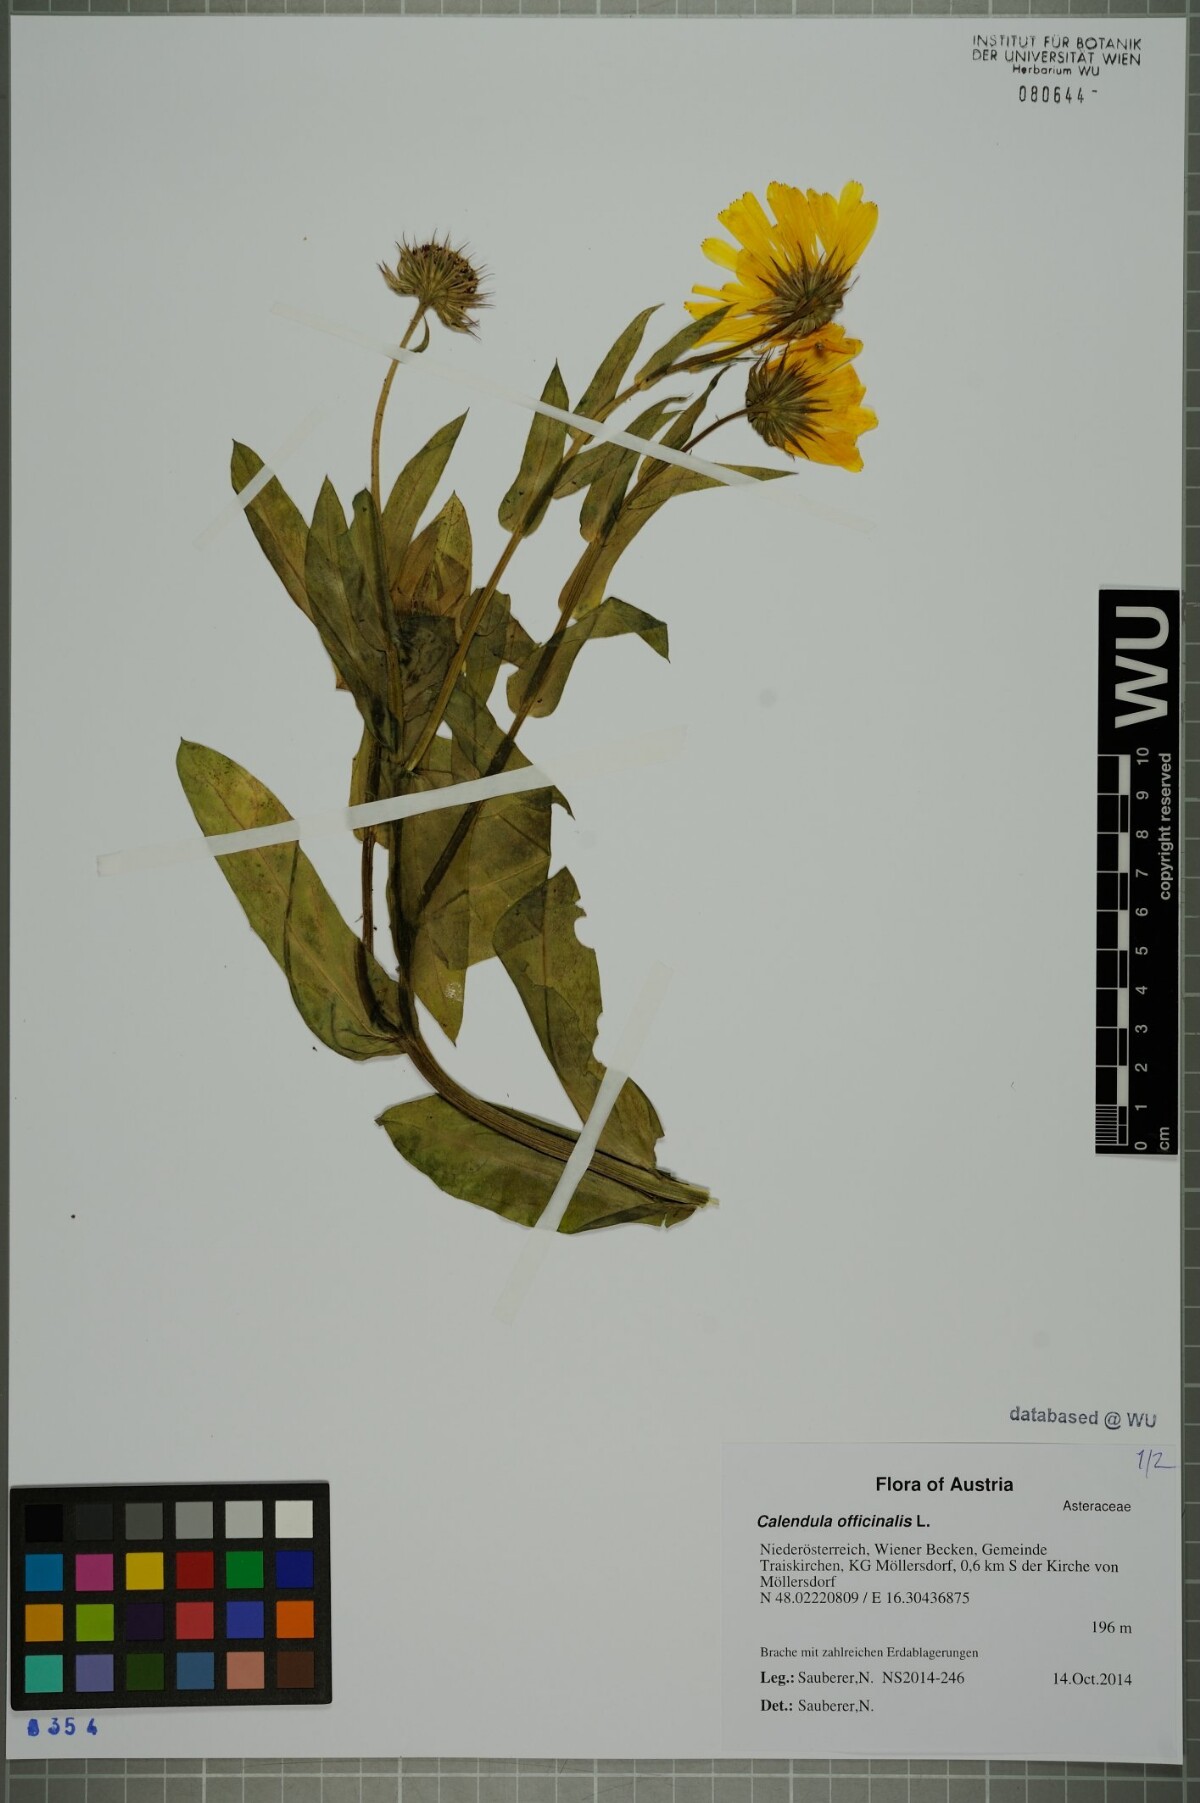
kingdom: Plantae
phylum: Tracheophyta
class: Magnoliopsida
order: Asterales
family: Asteraceae
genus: Calendula
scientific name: Calendula officinalis
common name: Pot marigold
